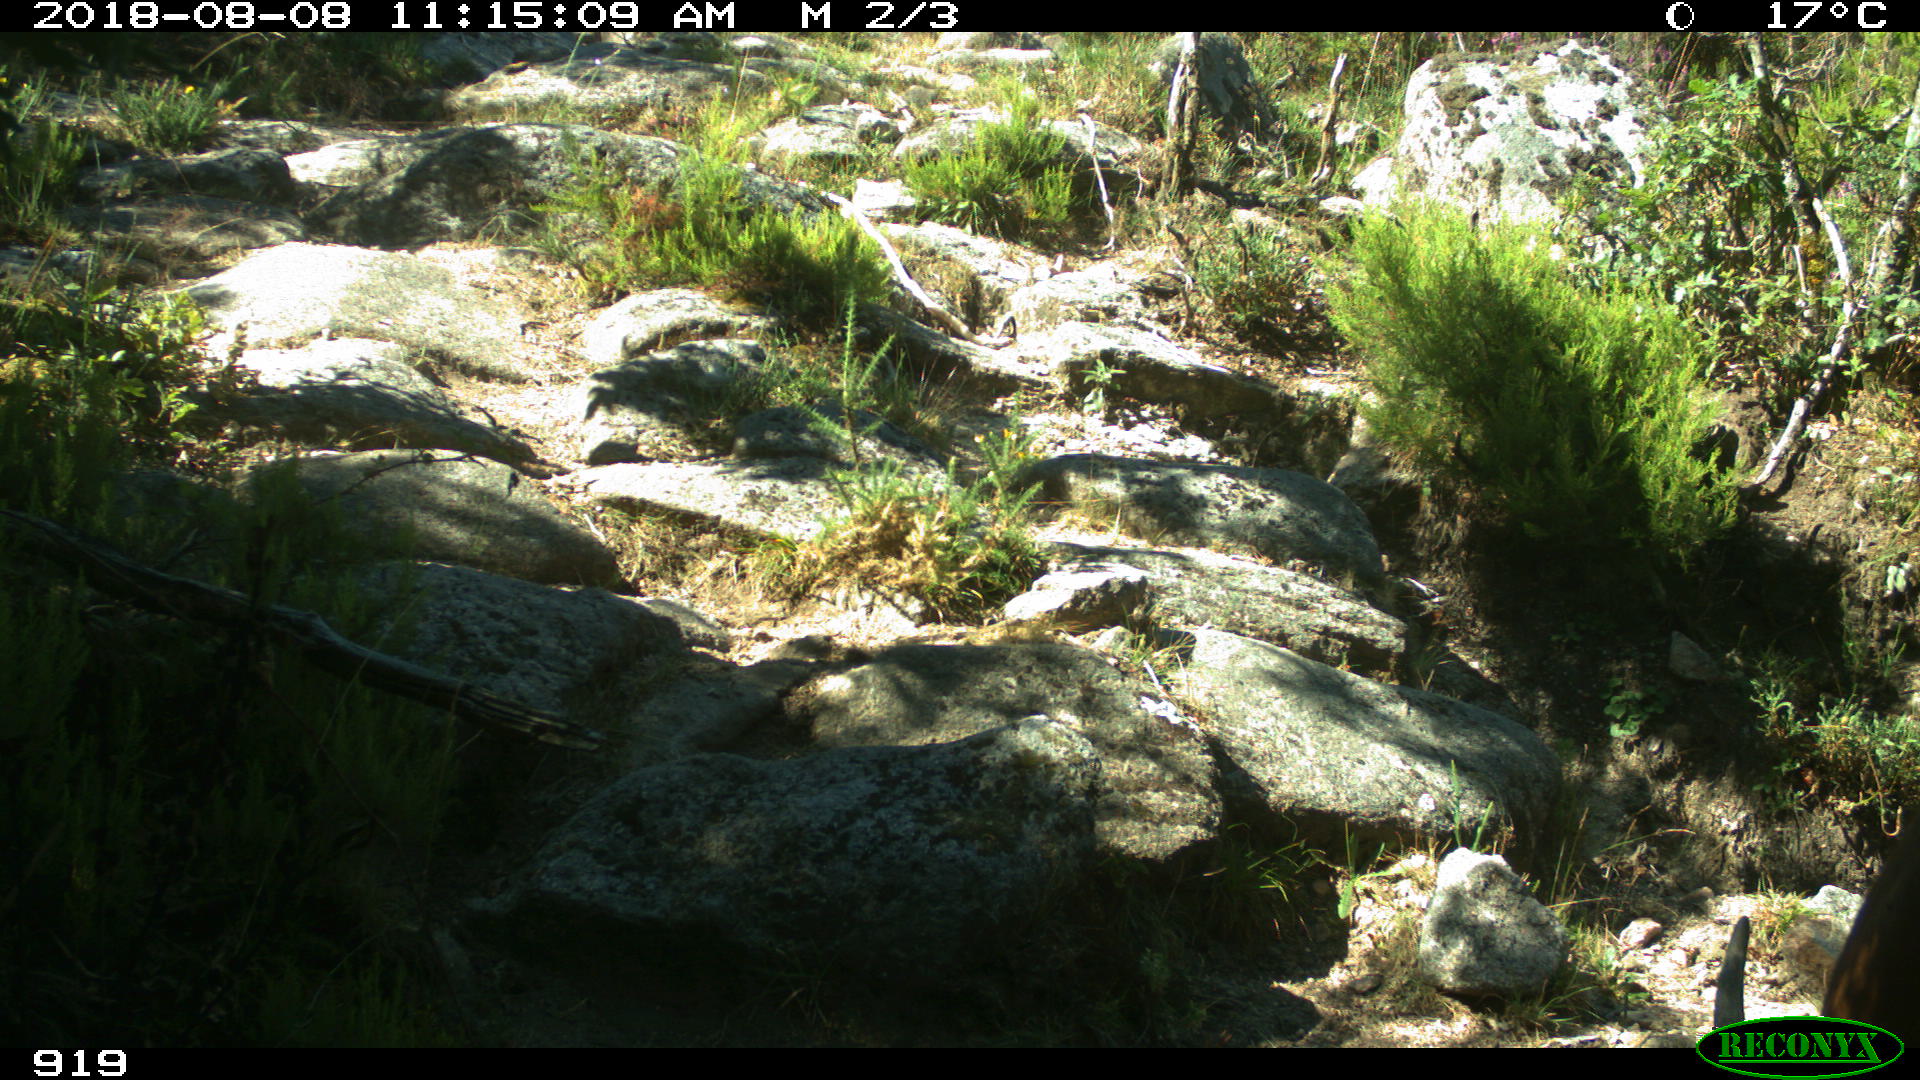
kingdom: Animalia
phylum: Chordata
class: Mammalia
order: Artiodactyla
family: Bovidae
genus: Bos
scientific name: Bos taurus
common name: Domesticated cattle
